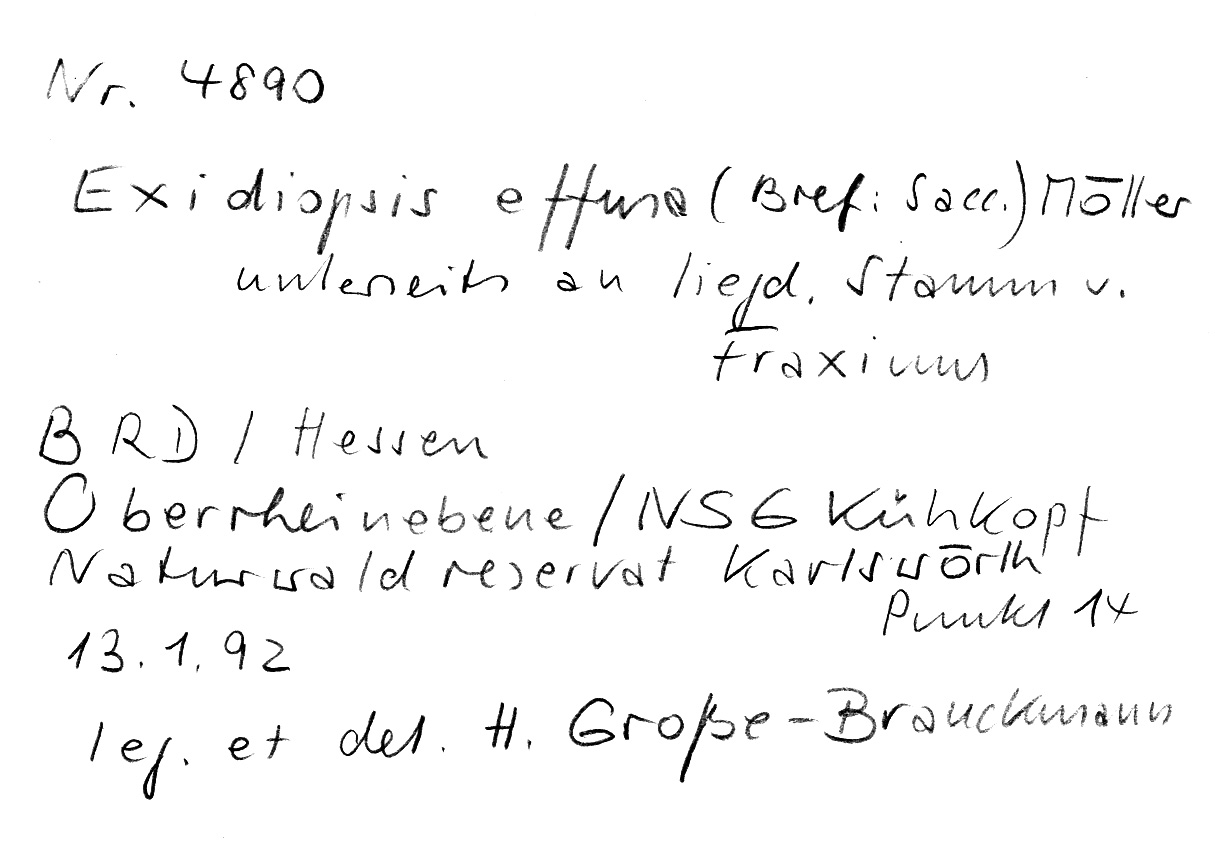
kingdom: Plantae
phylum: Tracheophyta
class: Magnoliopsida
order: Lamiales
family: Oleaceae
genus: Fraxinus
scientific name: Fraxinus
